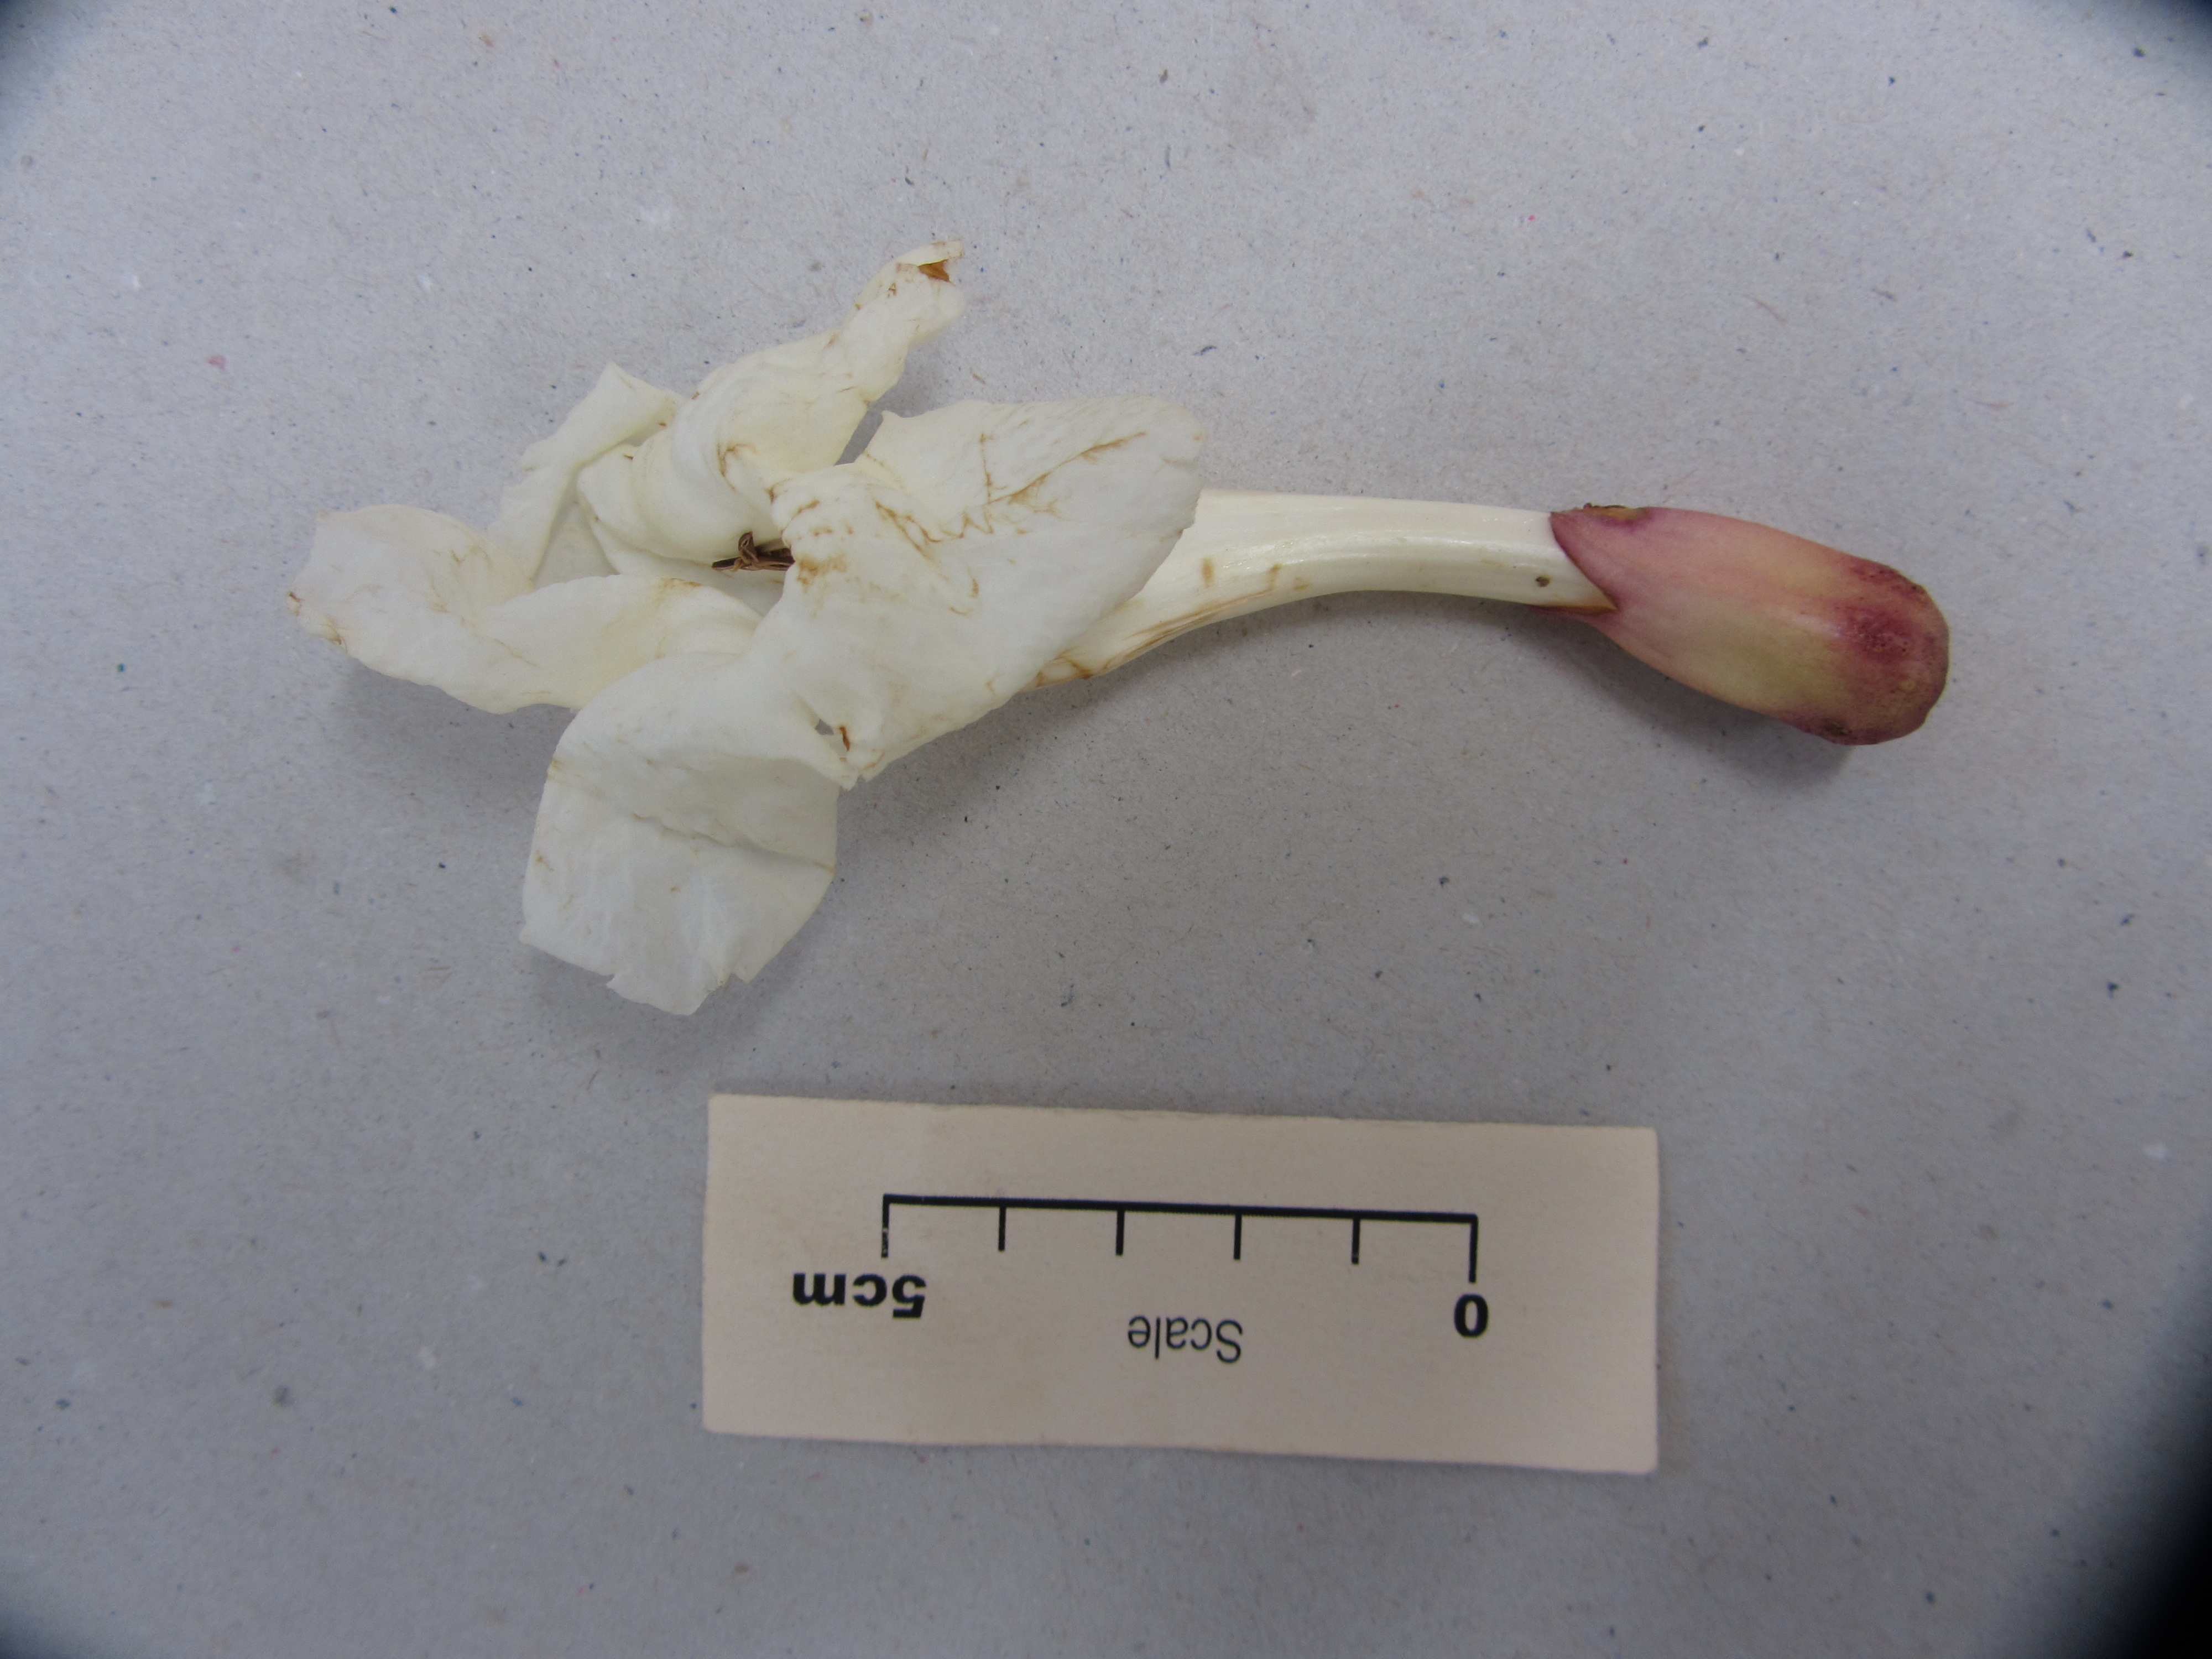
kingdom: Plantae
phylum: Tracheophyta
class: Magnoliopsida
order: Lamiales
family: Bignoniaceae
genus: Radermachera
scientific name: Radermachera sinica
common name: China doll plant
